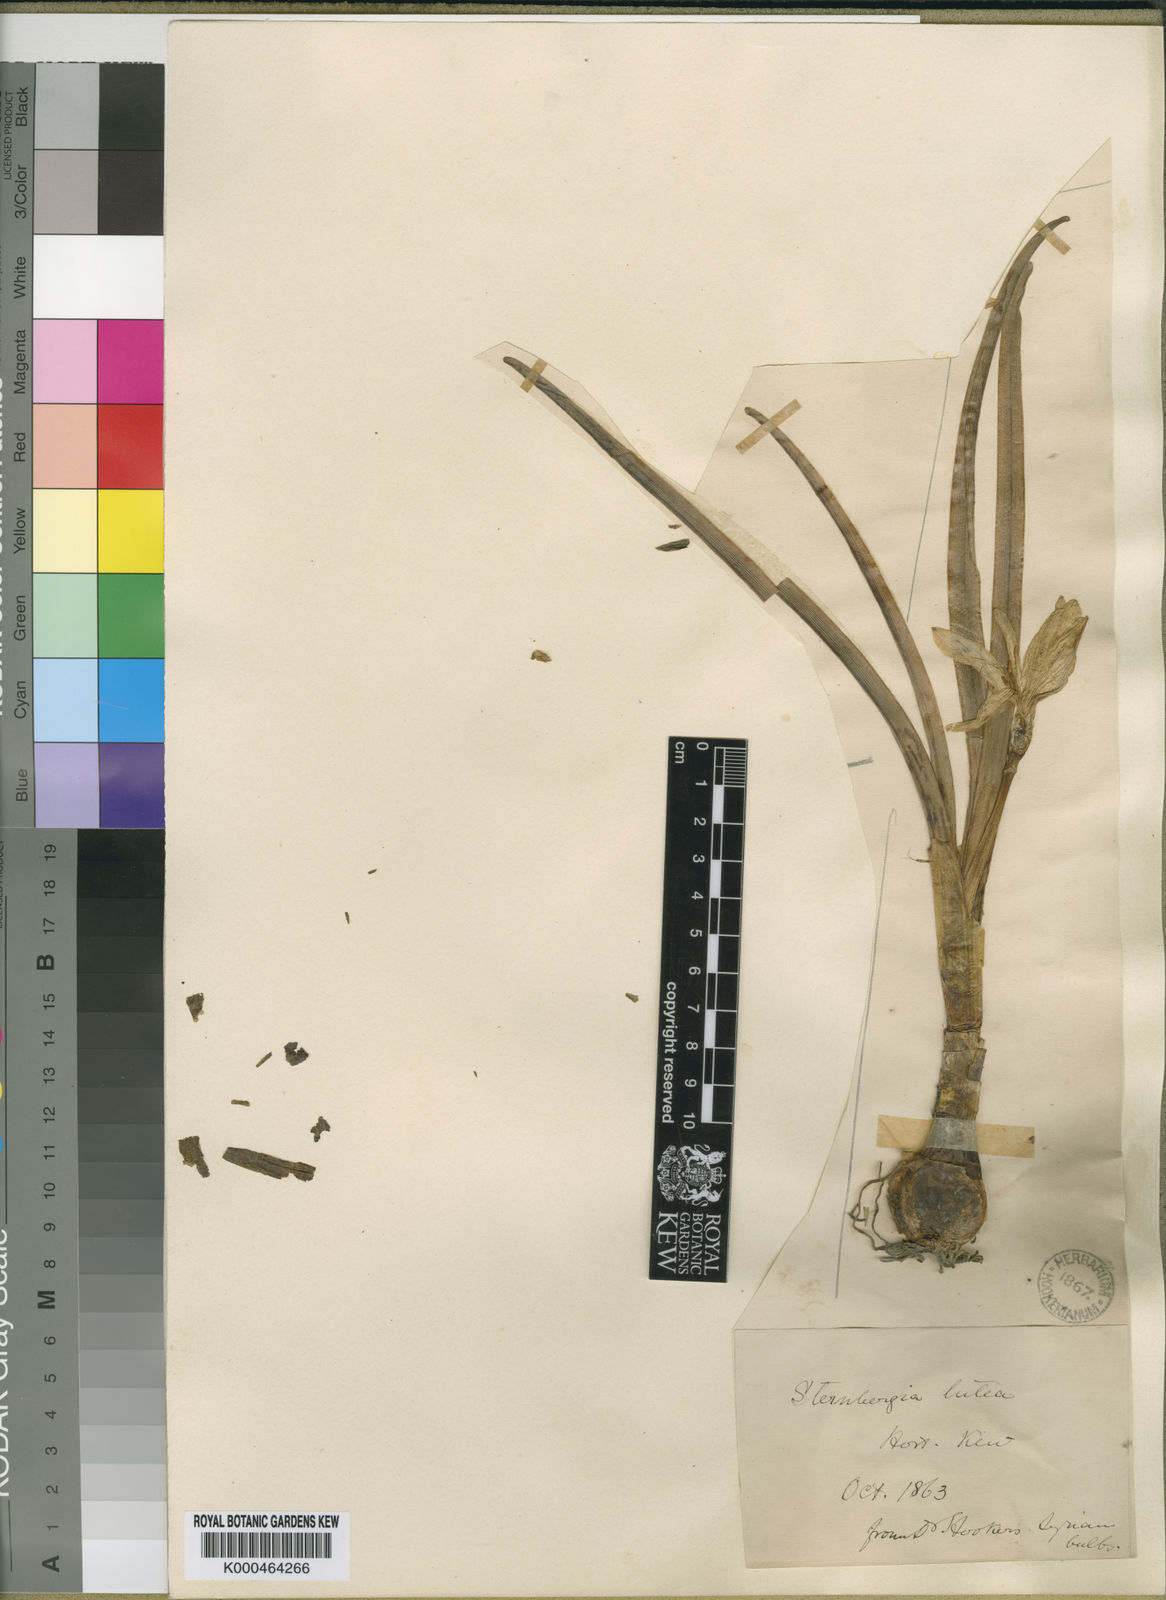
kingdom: Plantae
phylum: Tracheophyta
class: Liliopsida
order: Asparagales
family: Amaryllidaceae
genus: Sternbergia
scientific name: Sternbergia
